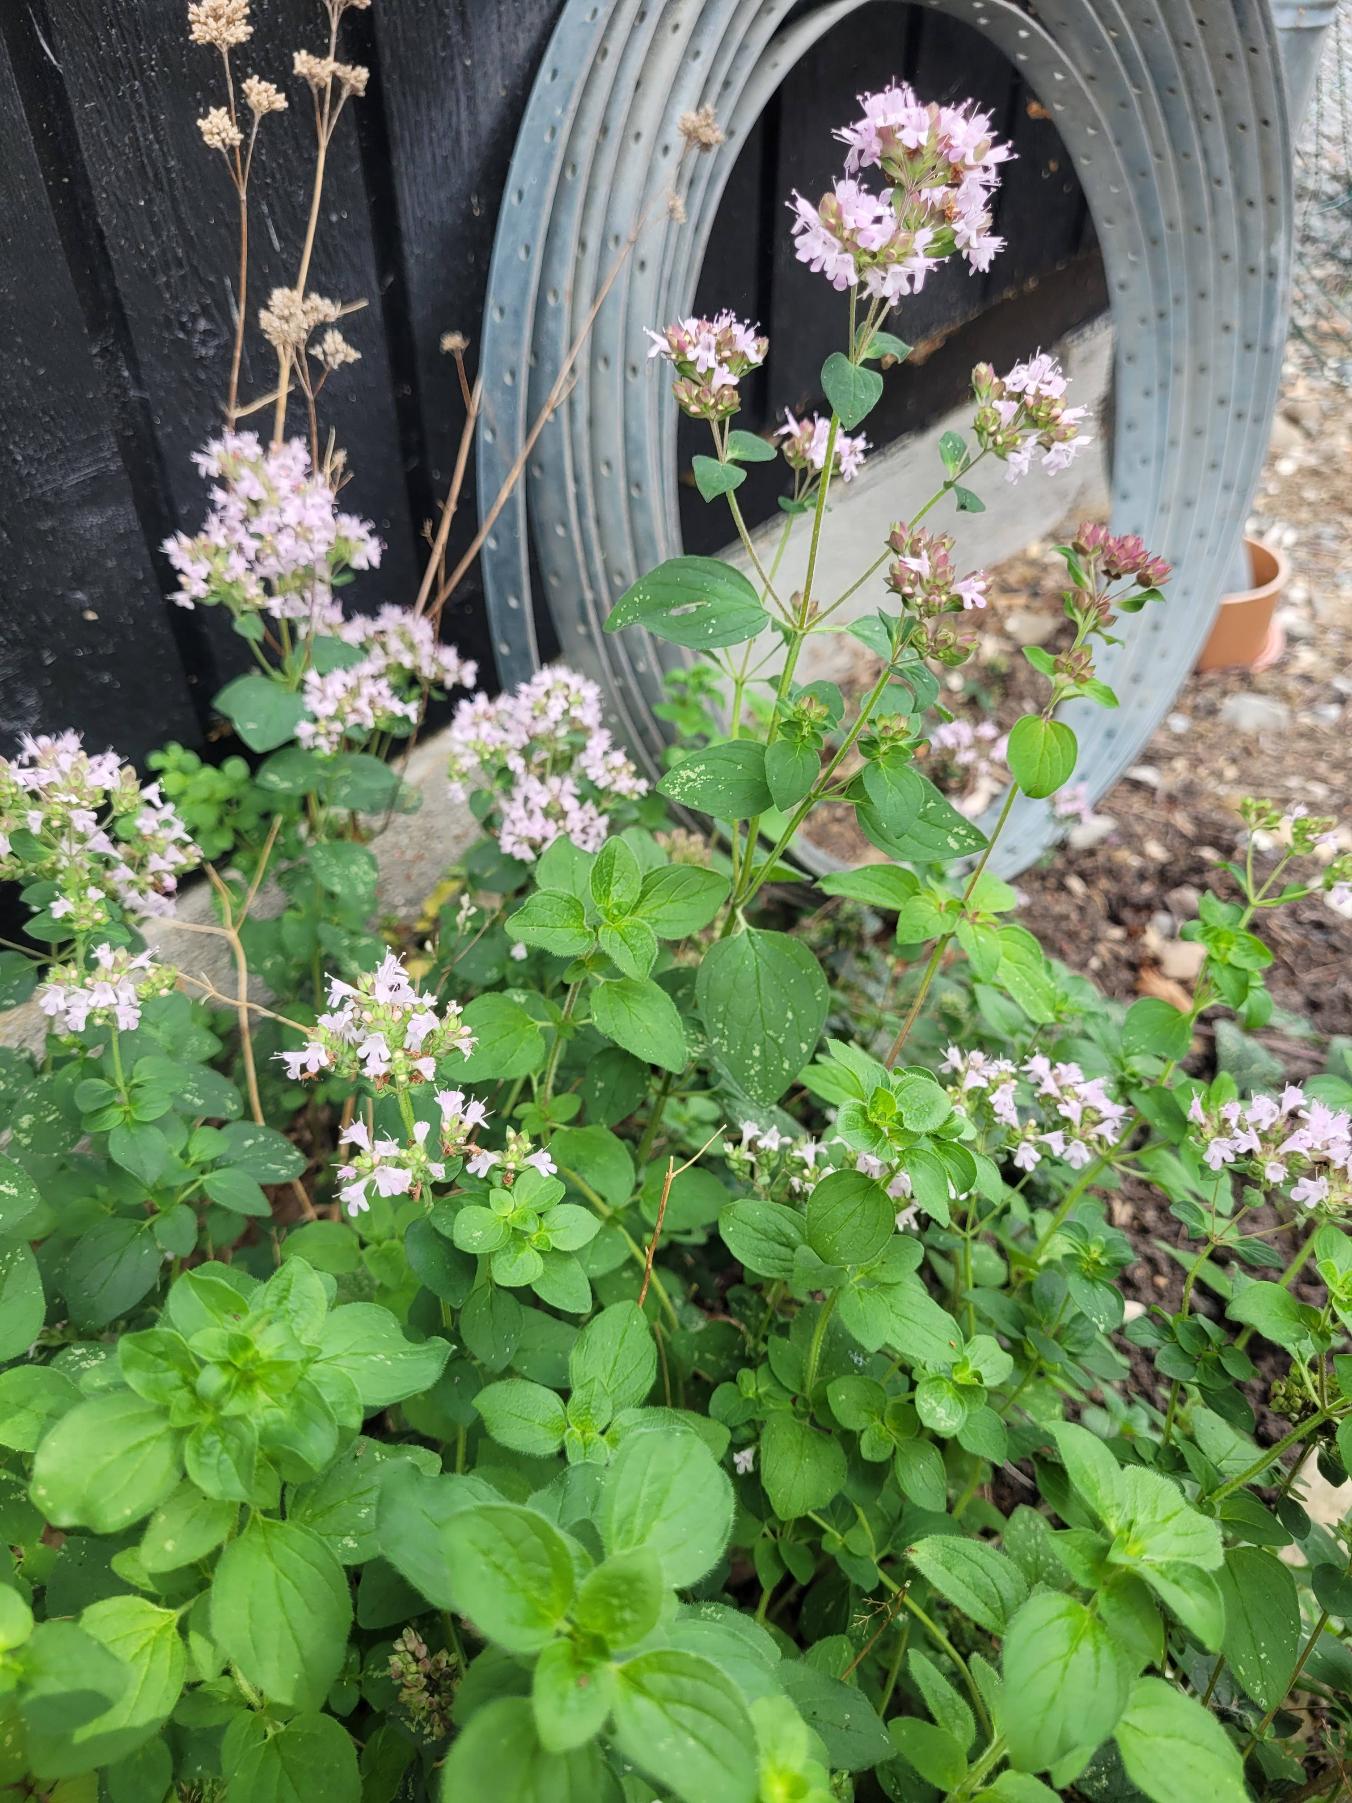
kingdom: Plantae
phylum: Tracheophyta
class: Magnoliopsida
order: Lamiales
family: Lamiaceae
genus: Origanum
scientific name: Origanum vulgare
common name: Merian
